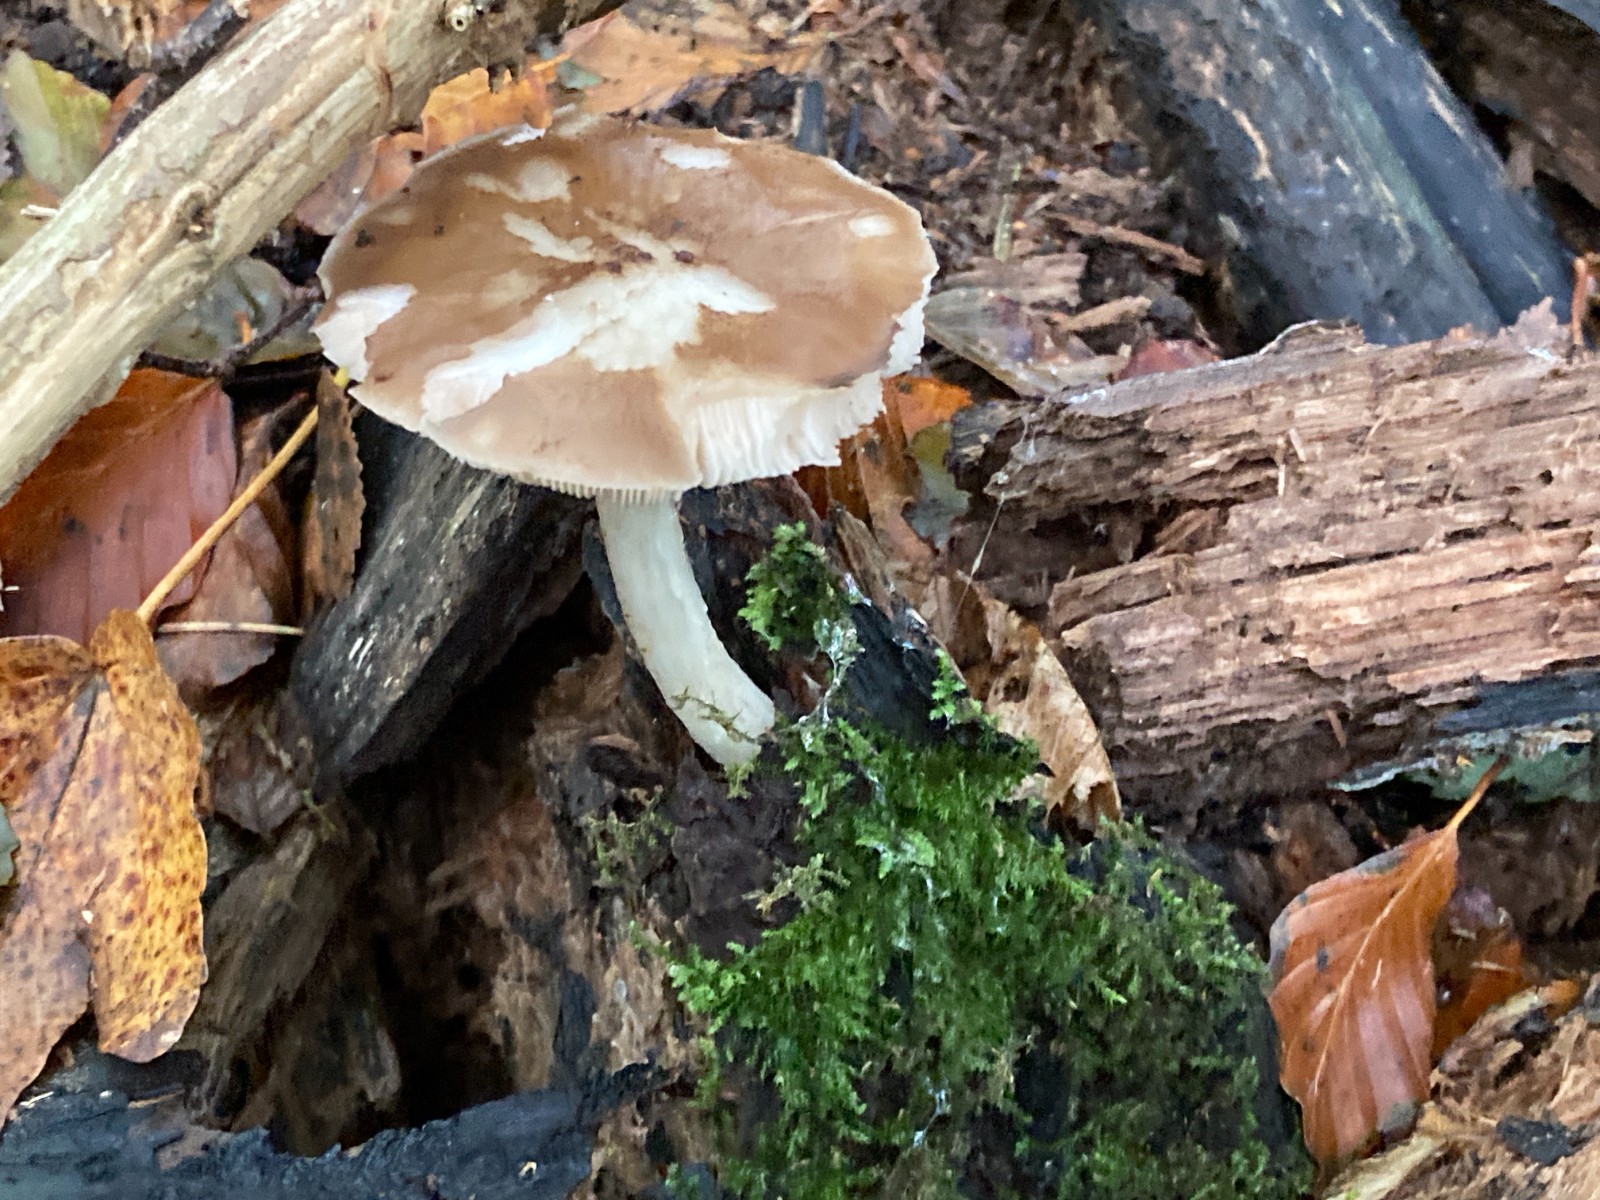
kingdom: Fungi
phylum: Basidiomycota
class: Agaricomycetes
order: Agaricales
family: Pluteaceae
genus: Pluteus
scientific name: Pluteus cervinus
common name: sodfarvet skærmhat
